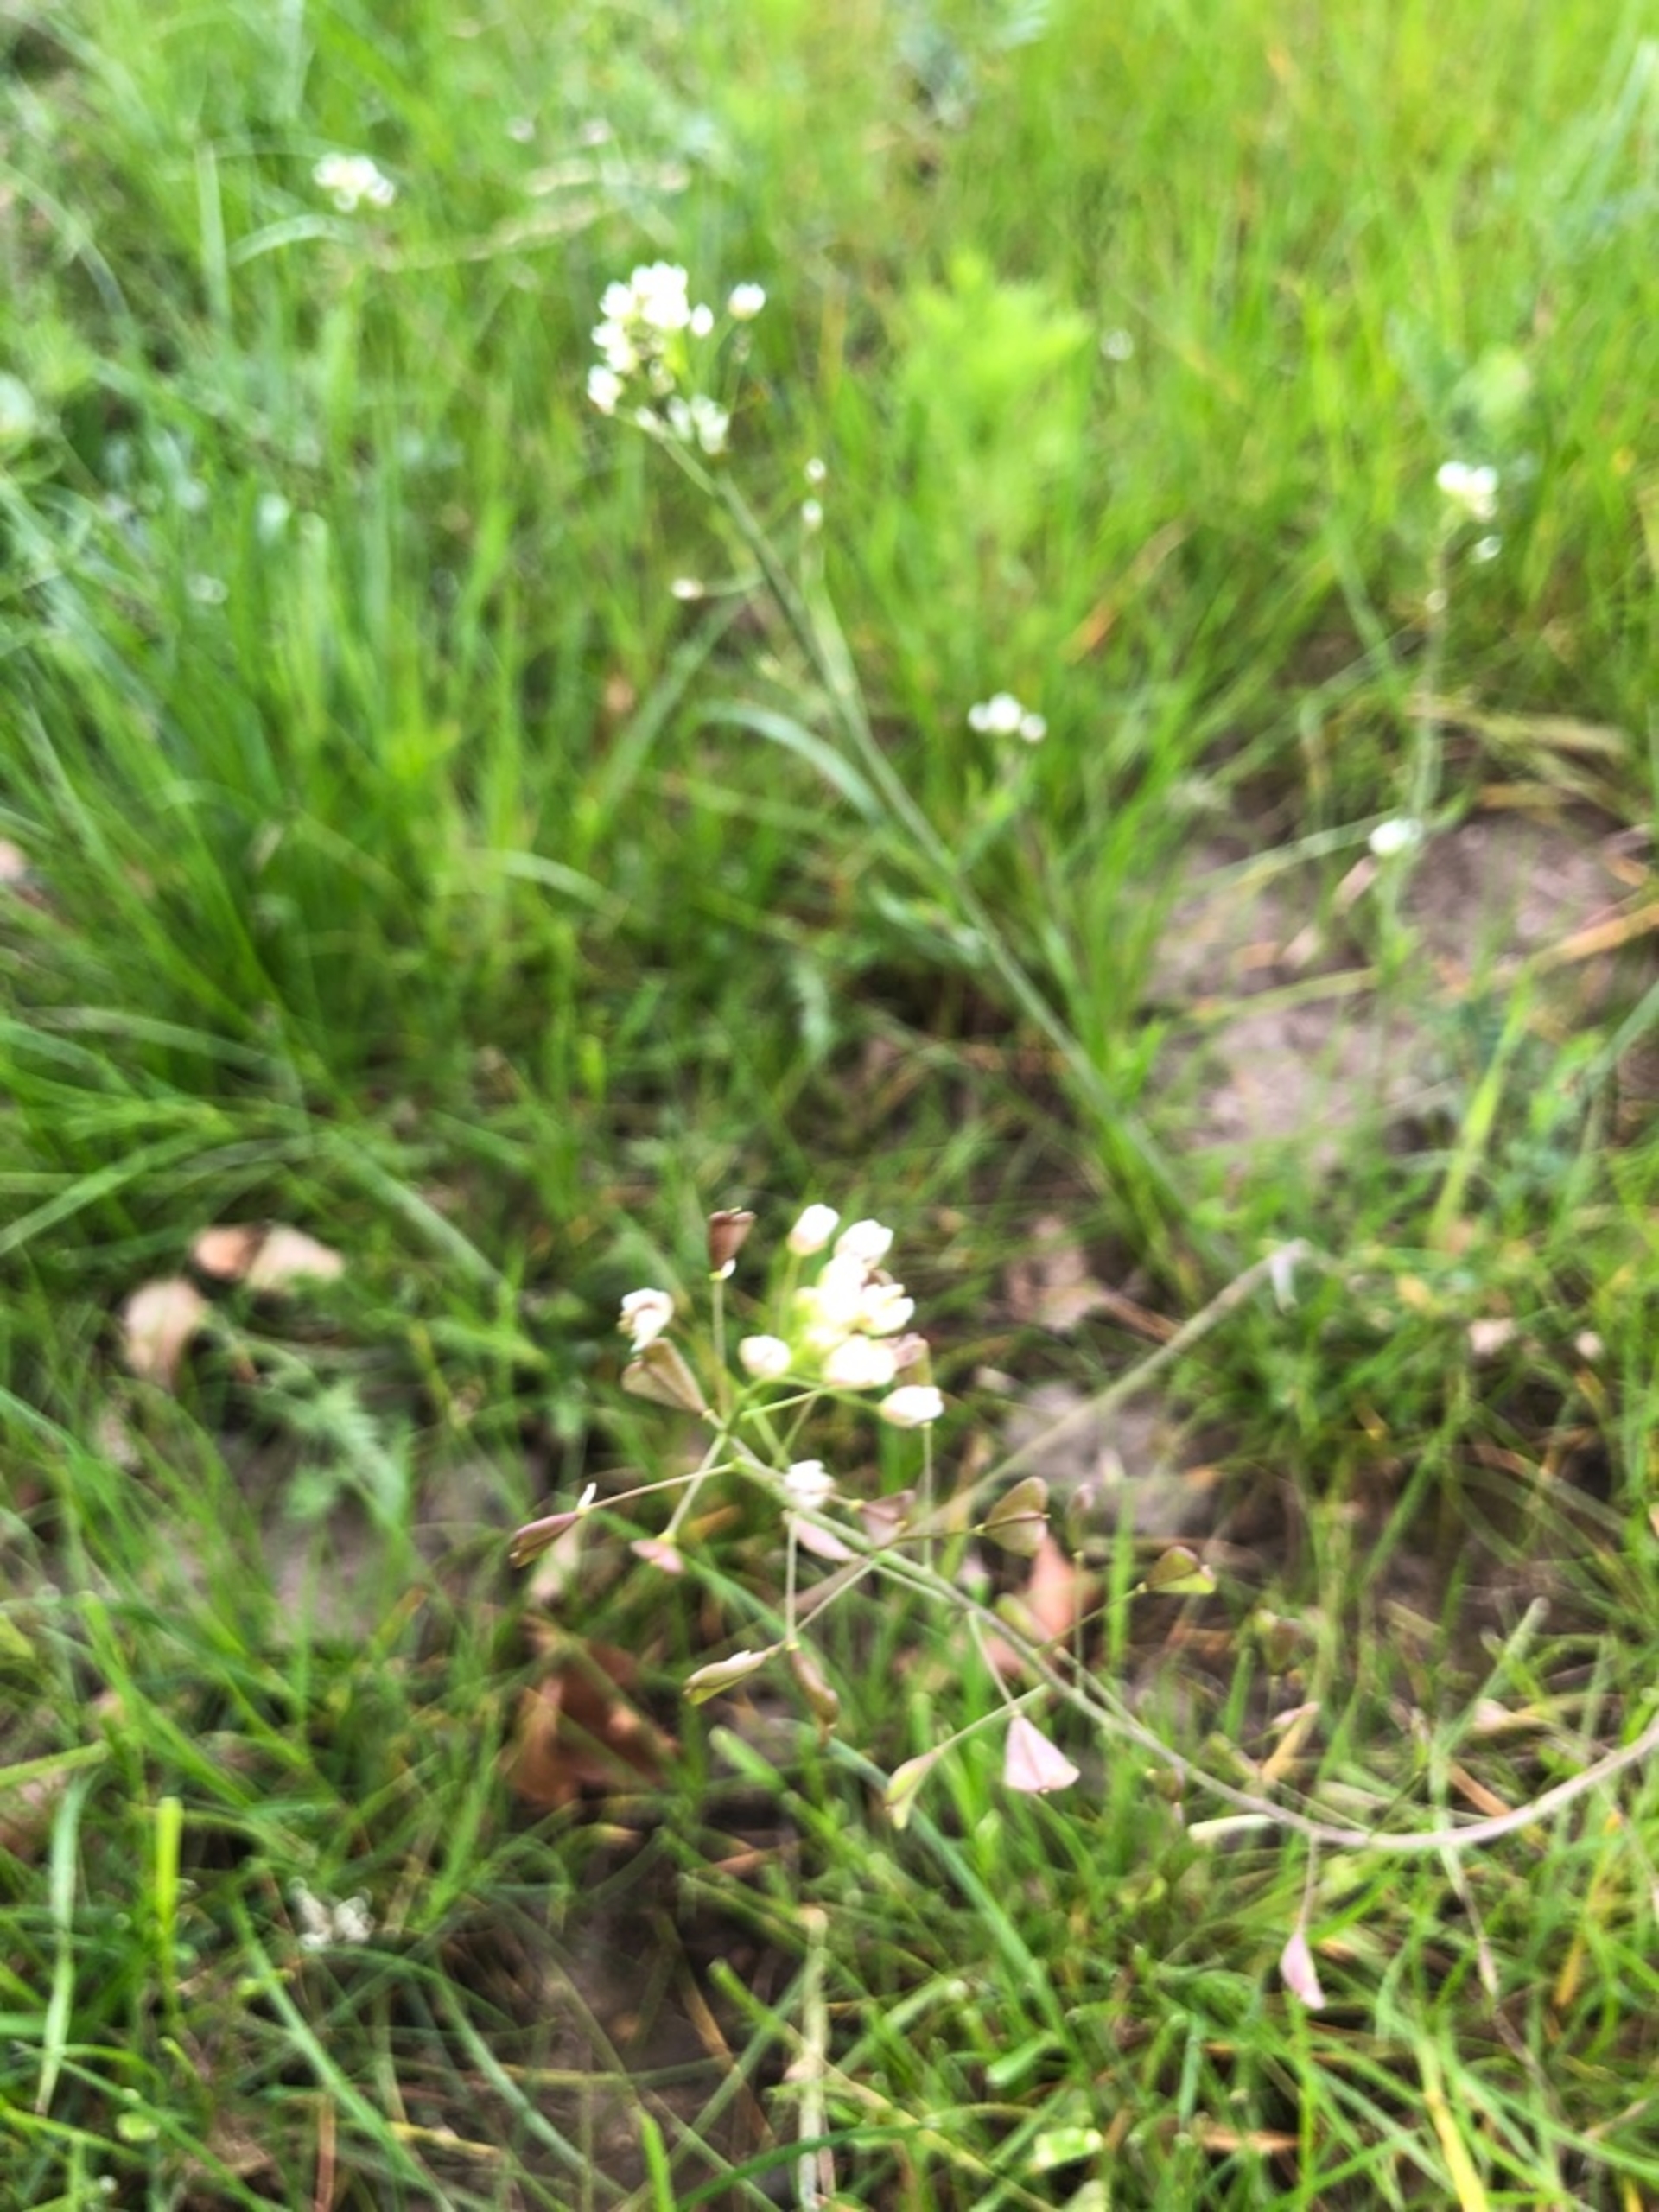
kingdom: Plantae
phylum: Tracheophyta
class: Magnoliopsida
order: Brassicales
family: Brassicaceae
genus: Capsella
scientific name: Capsella bursa-pastoris
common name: Hyrdetaske
